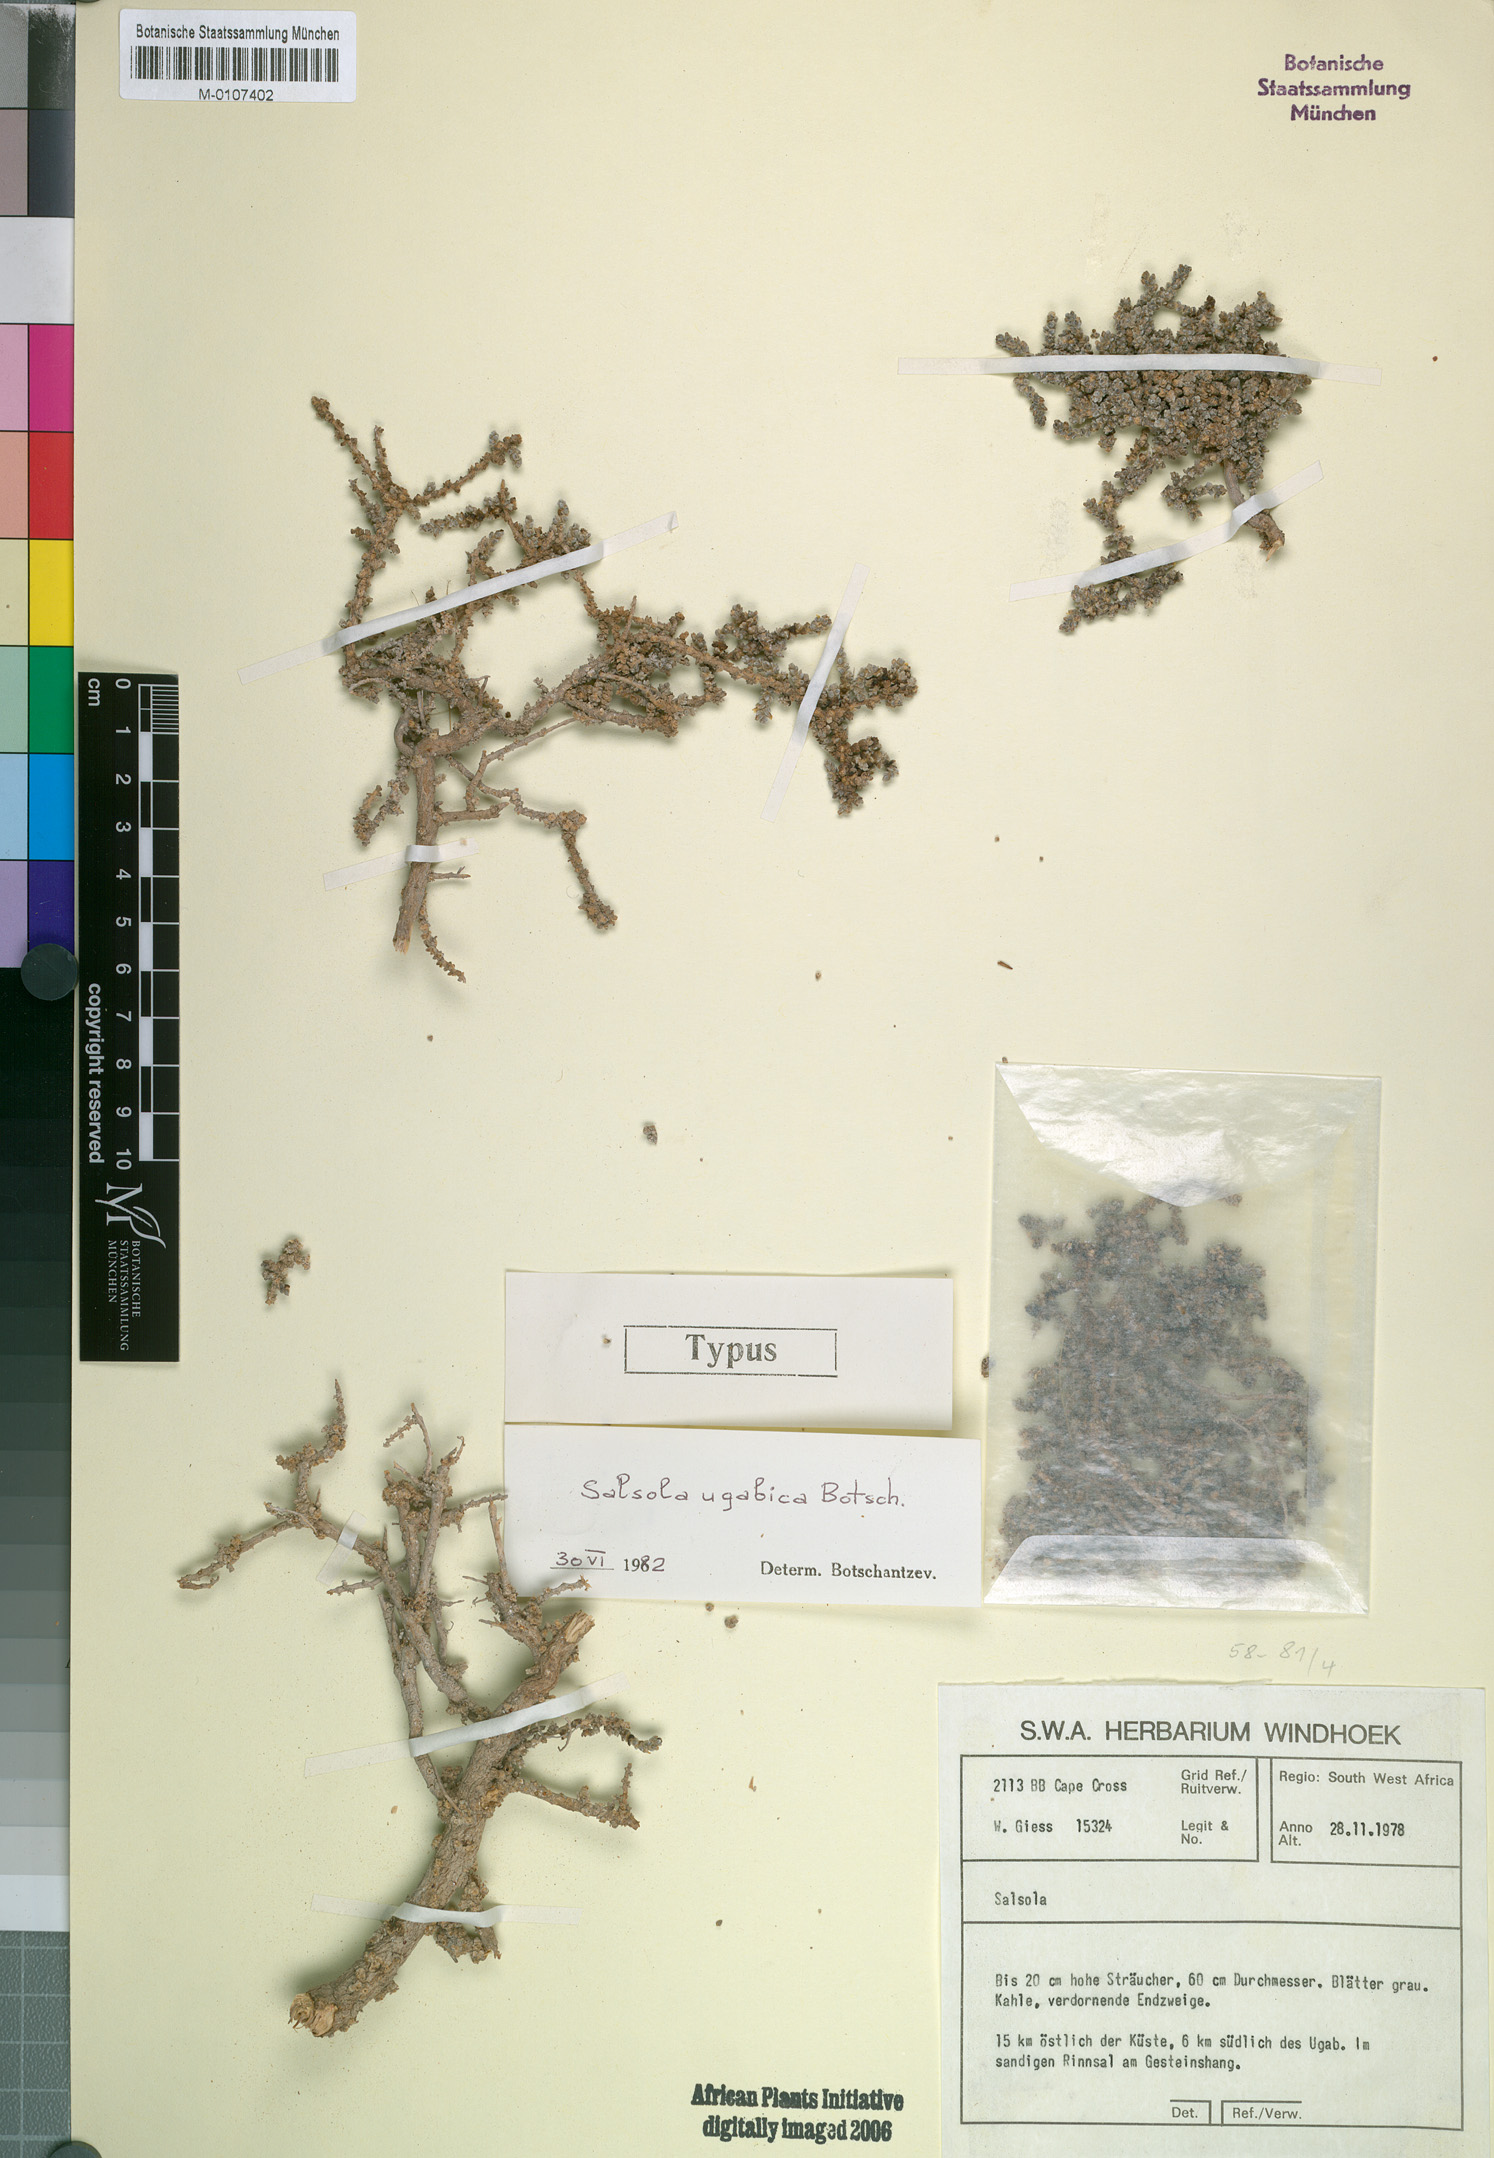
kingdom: Plantae
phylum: Tracheophyta
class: Magnoliopsida
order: Caryophyllales
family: Amaranthaceae
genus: Caroxylon
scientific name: Caroxylon ugabicum
